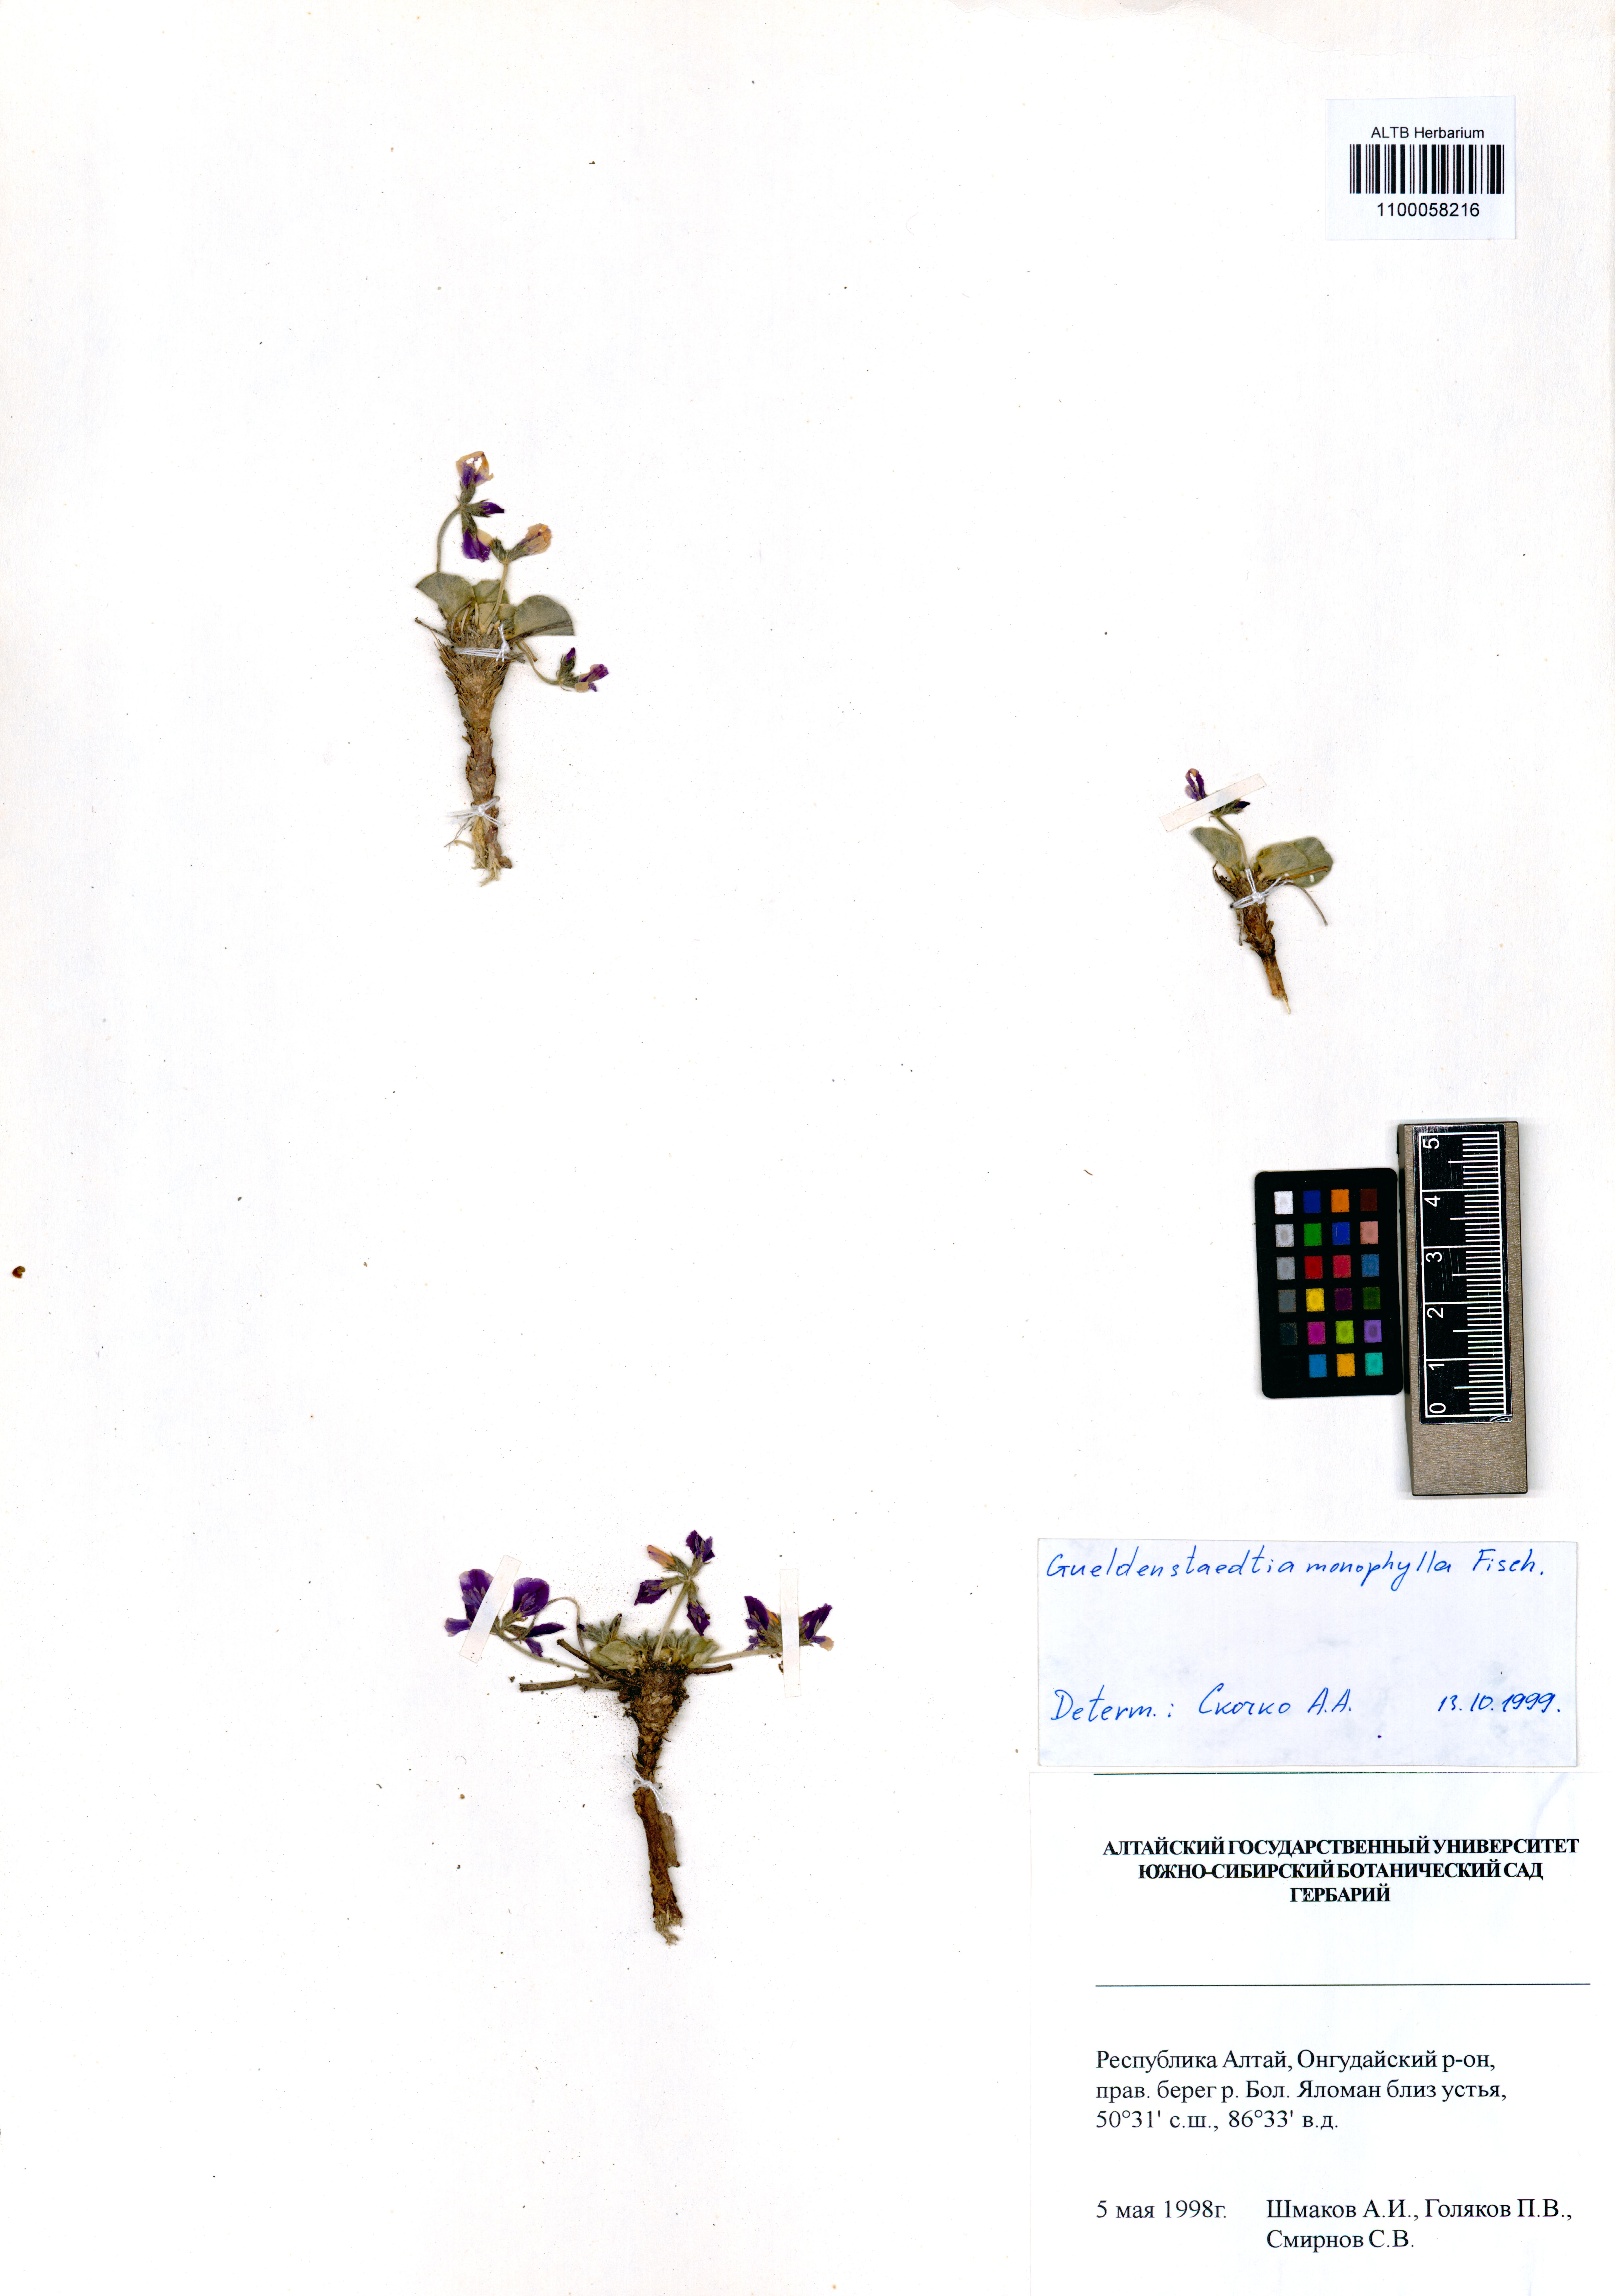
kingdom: Plantae
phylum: Tracheophyta
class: Magnoliopsida
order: Fabales
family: Fabaceae
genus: Gueldenstaedtia
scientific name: Gueldenstaedtia monophylla
